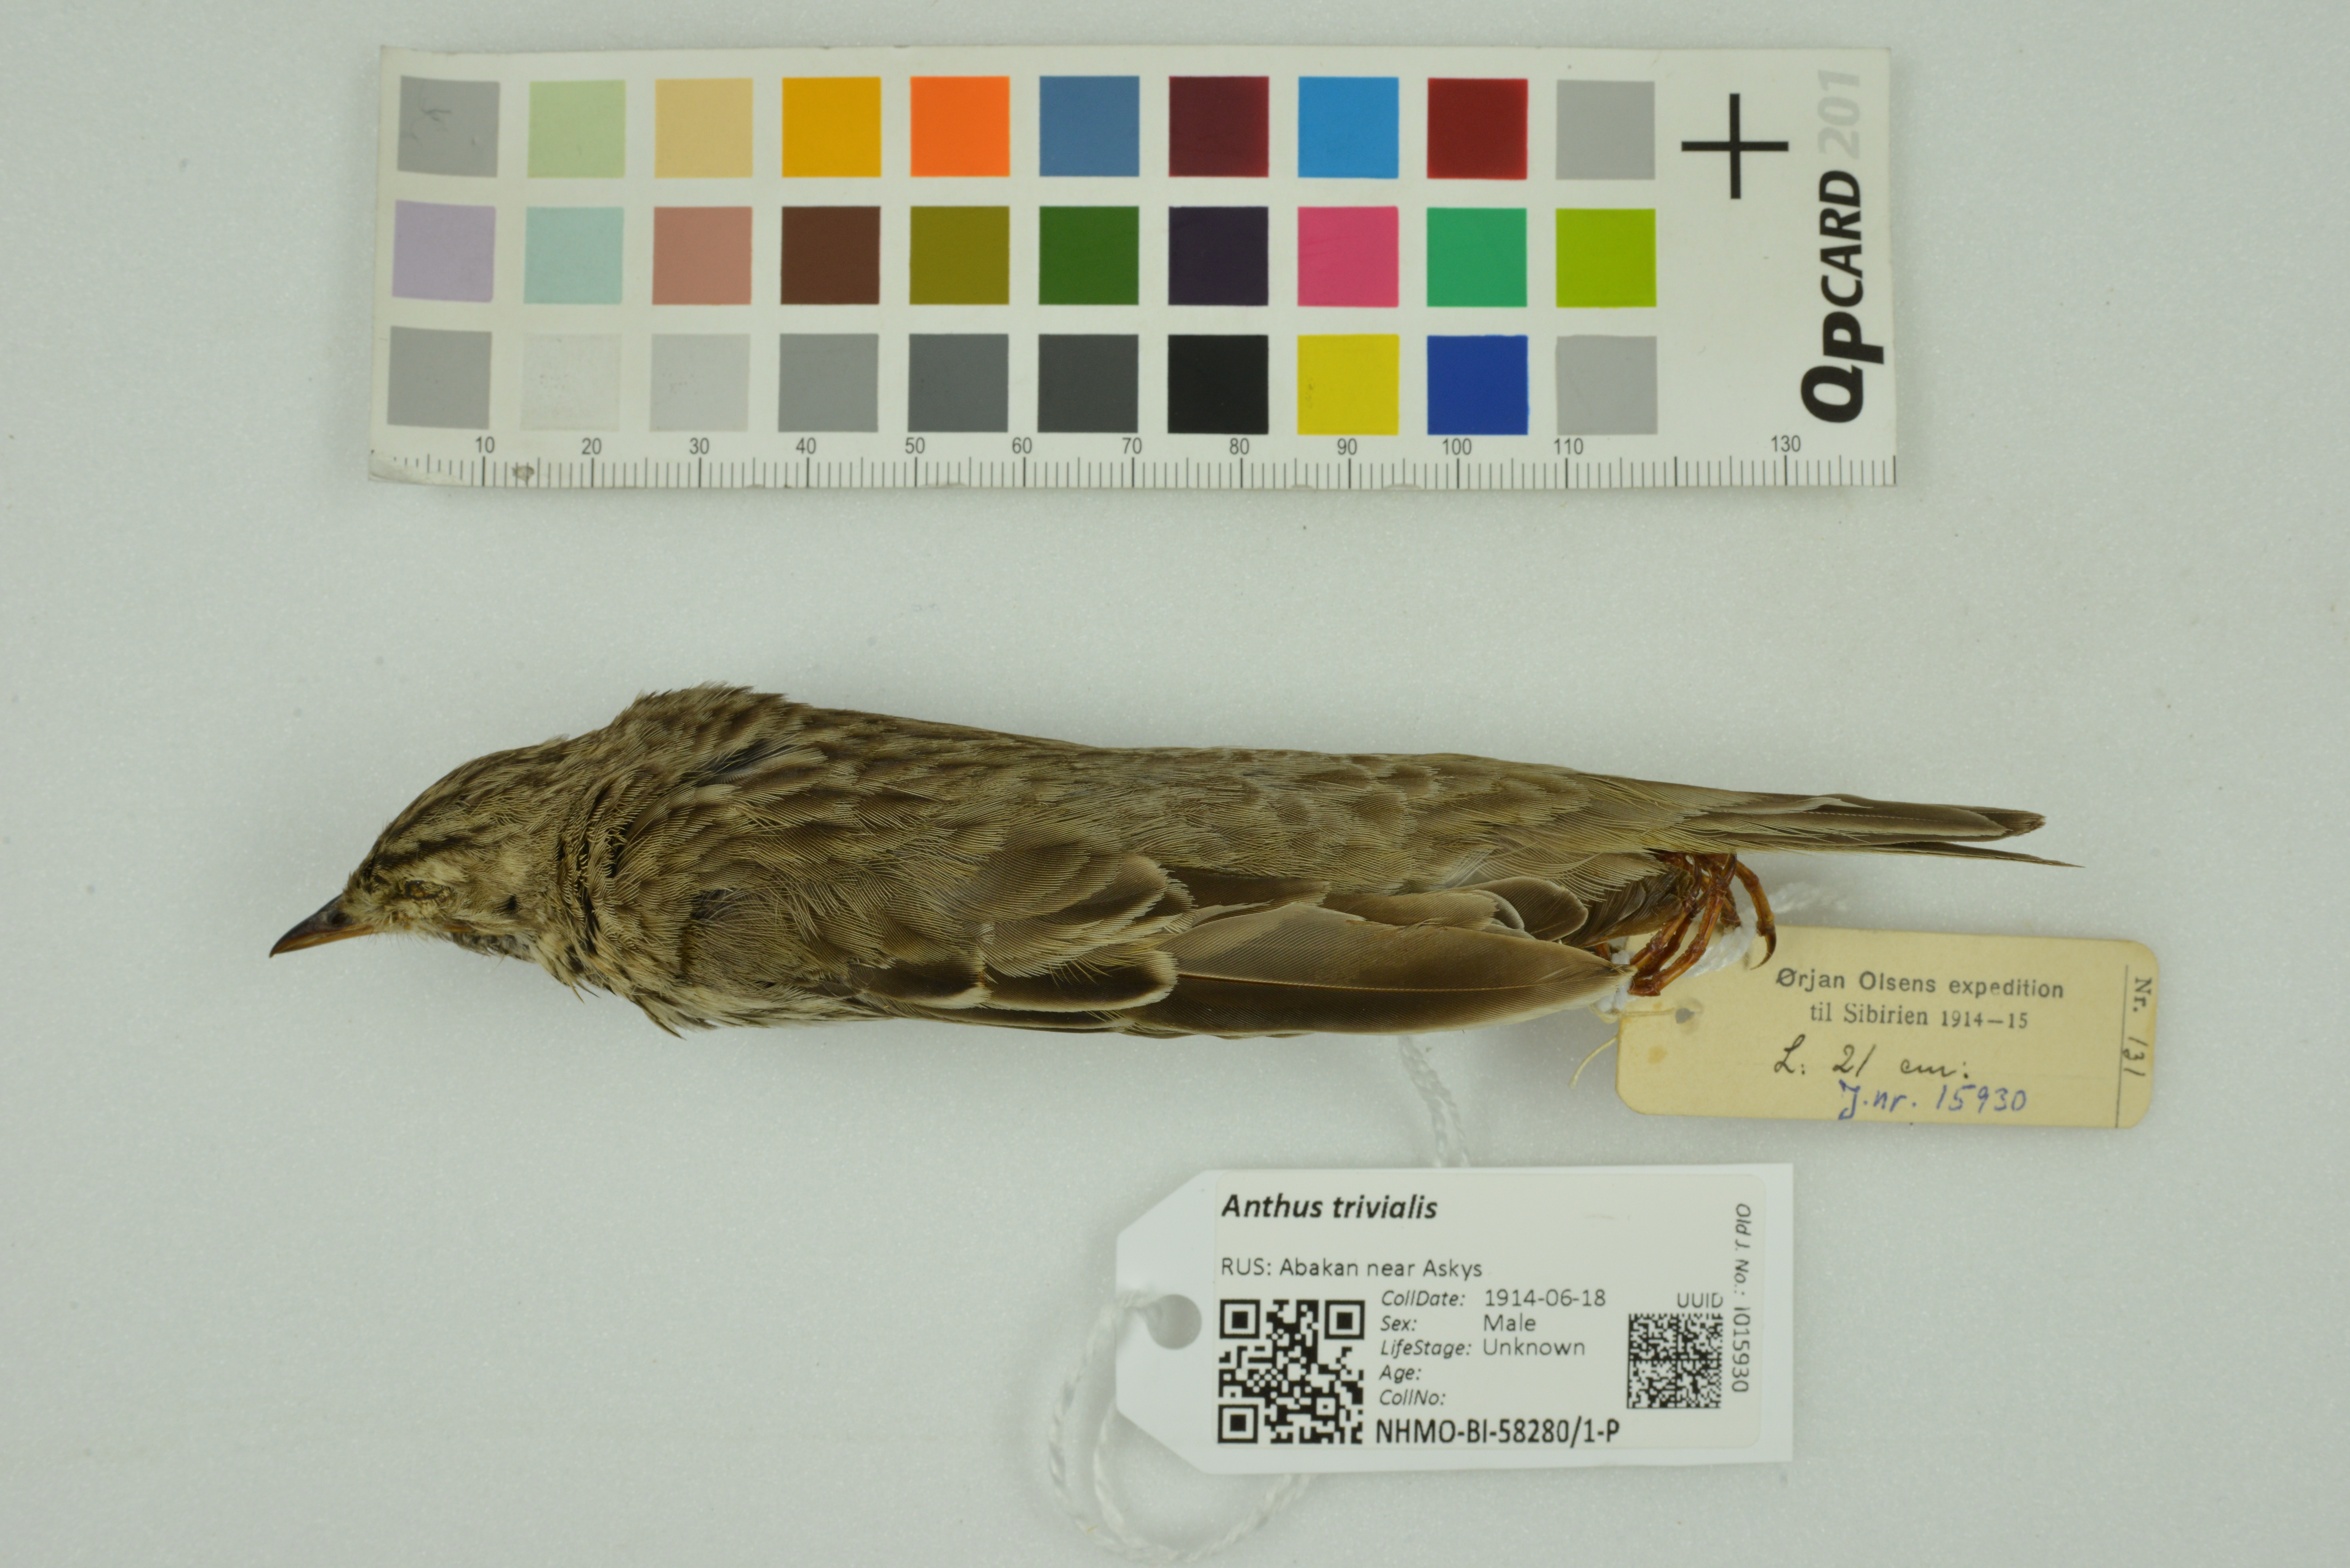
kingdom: Animalia
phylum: Chordata
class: Aves
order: Passeriformes
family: Motacillidae
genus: Anthus
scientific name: Anthus trivialis
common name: Tree pipit
